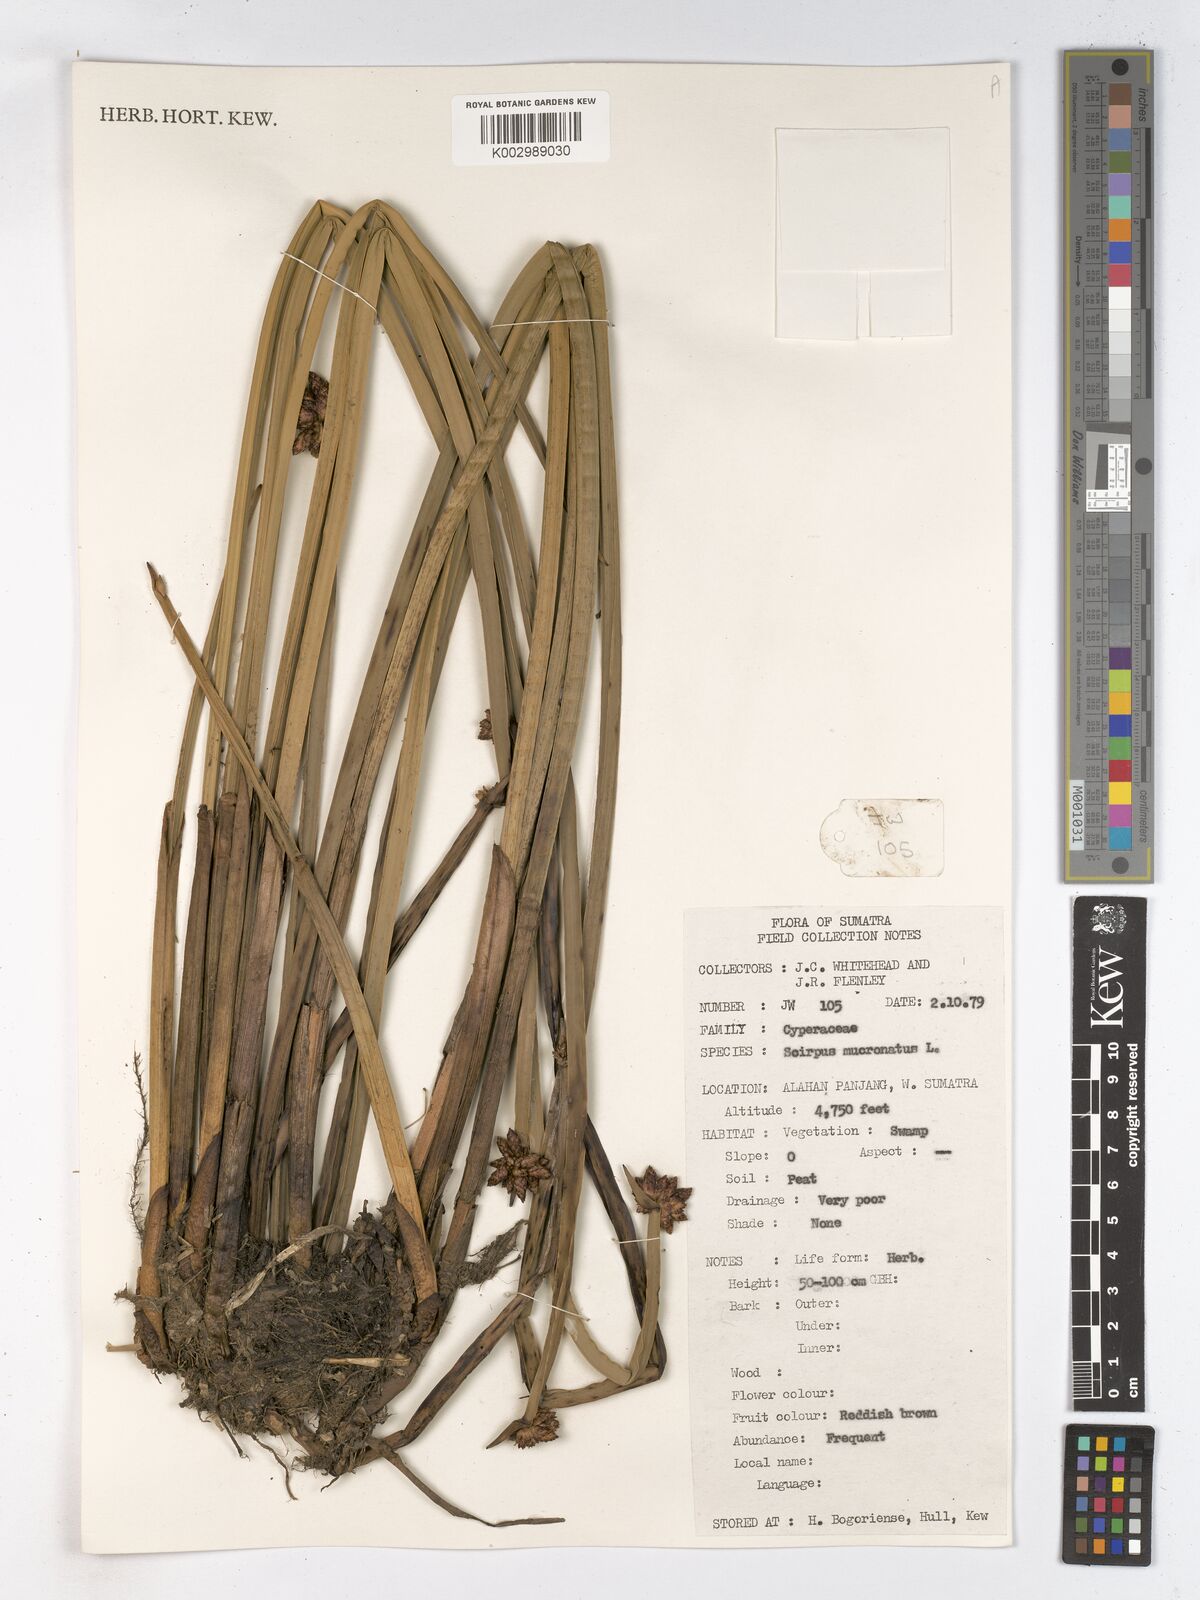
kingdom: Plantae
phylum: Tracheophyta
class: Liliopsida
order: Poales
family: Cyperaceae
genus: Schoenoplectiella
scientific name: Schoenoplectiella mucronata
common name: Bog bulrush
